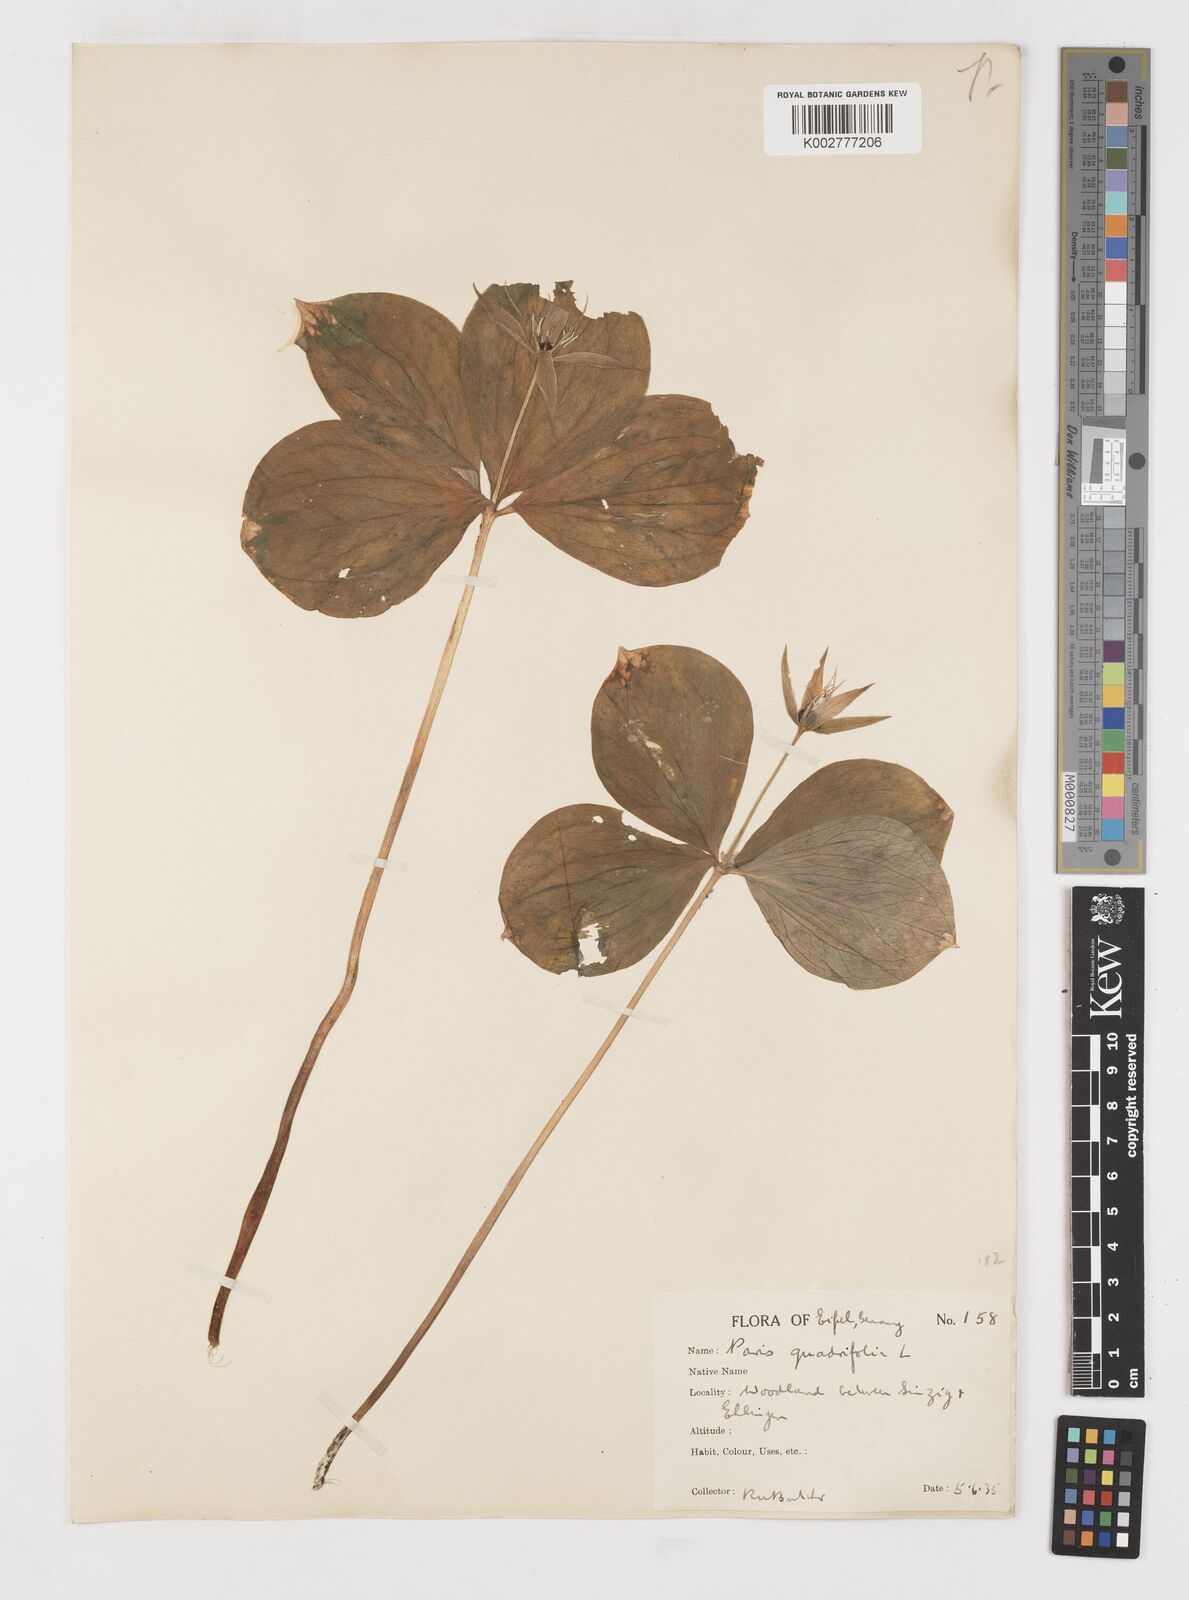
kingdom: Plantae
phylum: Tracheophyta
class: Liliopsida
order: Liliales
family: Melanthiaceae
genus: Paris
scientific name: Paris quadrifolia
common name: Herb-paris
